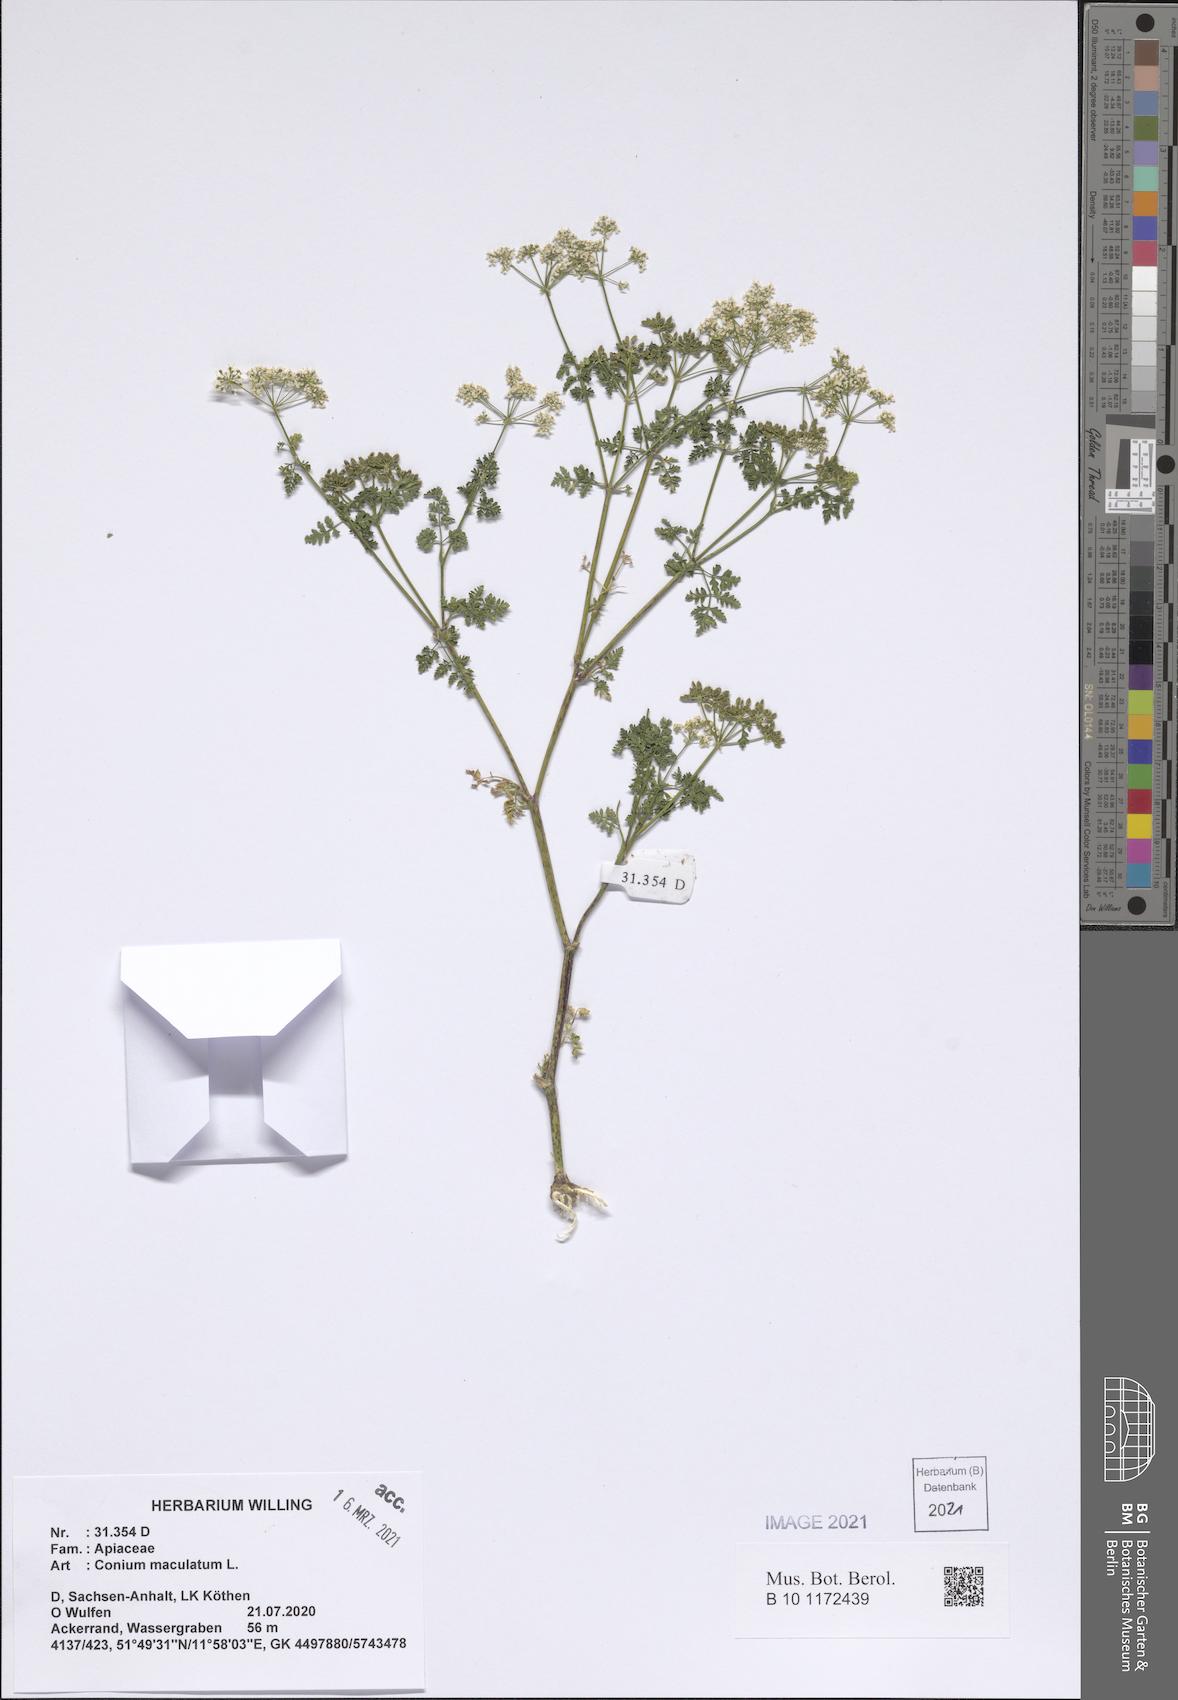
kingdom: Plantae
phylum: Tracheophyta
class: Magnoliopsida
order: Apiales
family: Apiaceae
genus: Conium
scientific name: Conium maculatum
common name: Hemlock
